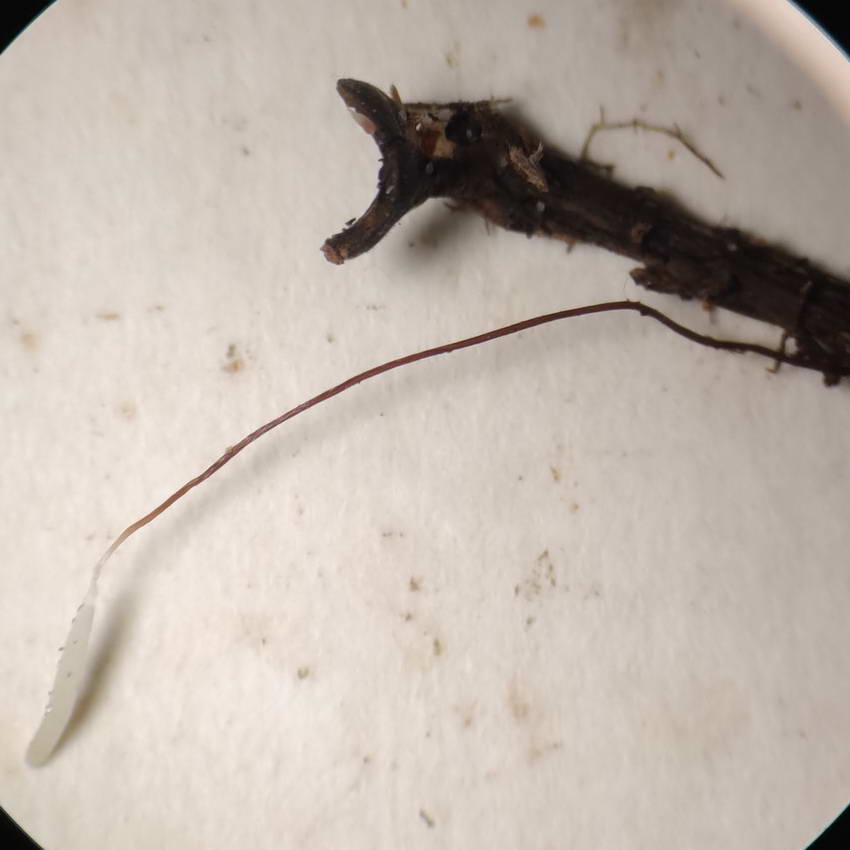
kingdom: Fungi
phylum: Basidiomycota
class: Agaricomycetes
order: Agaricales
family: Typhulaceae
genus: Typhula
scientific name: Typhula erythropus
